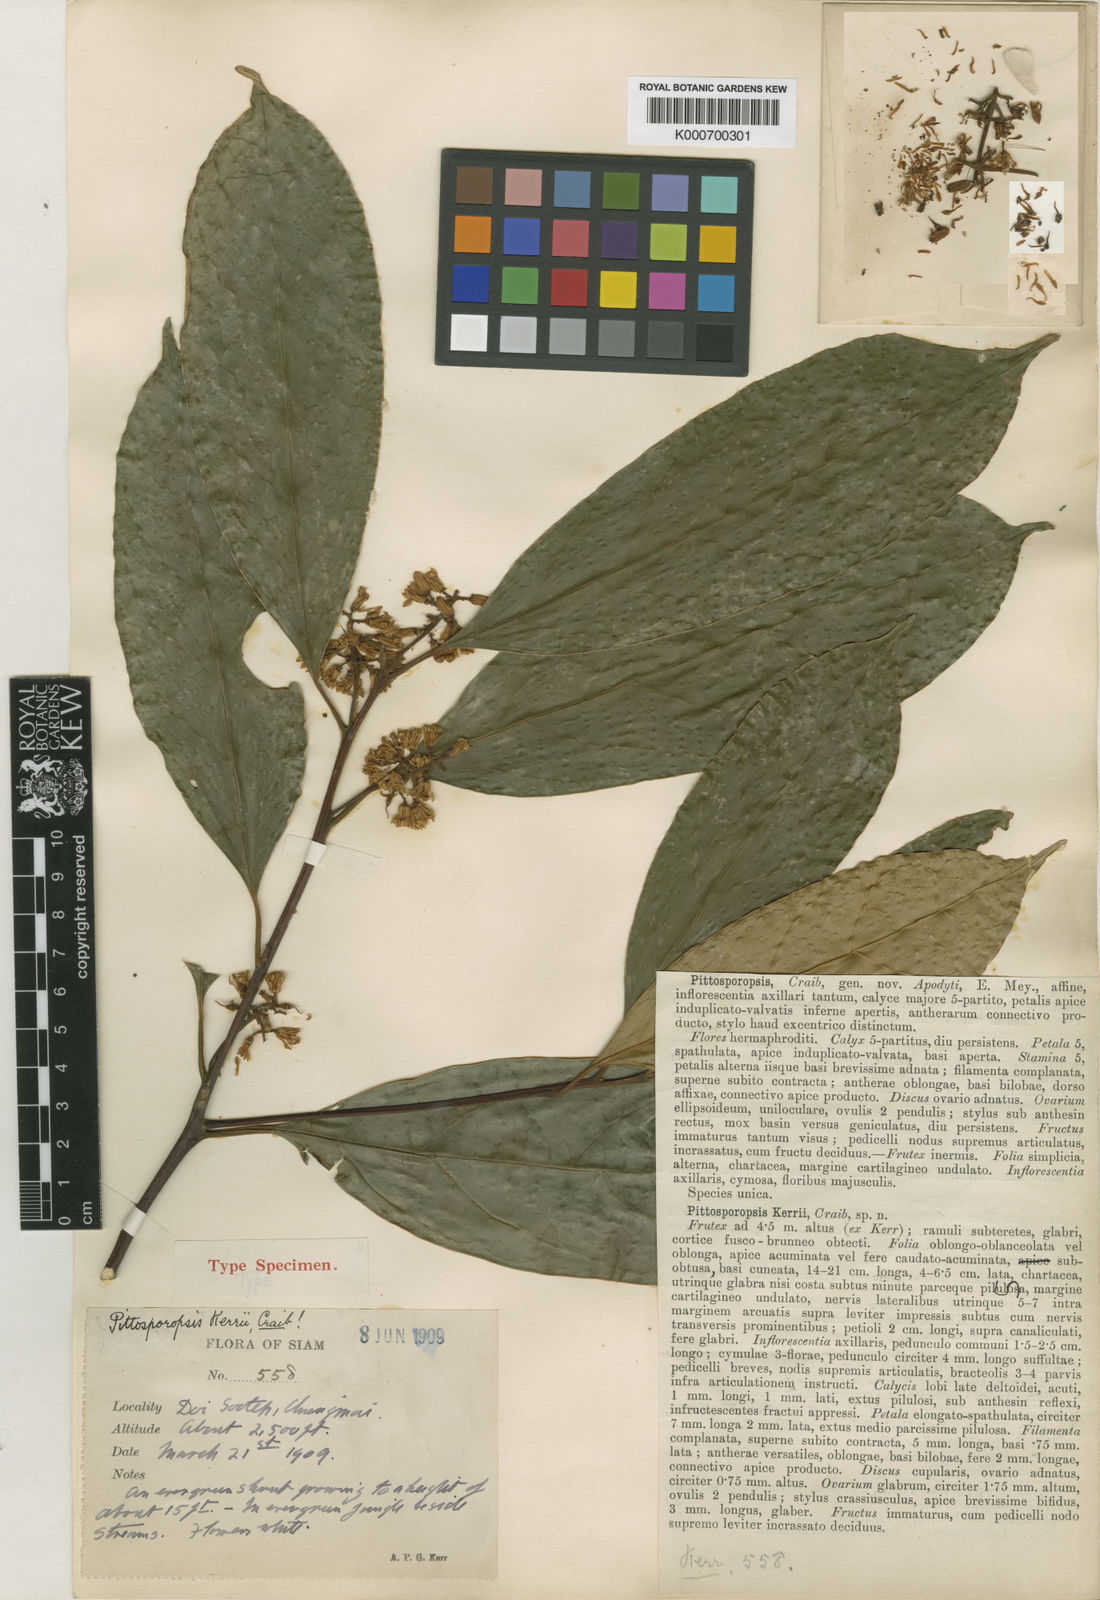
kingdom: Plantae
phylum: Tracheophyta
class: Magnoliopsida
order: Metteniusales
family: Metteniusaceae
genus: Pittosporopsis
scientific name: Pittosporopsis kerrii
